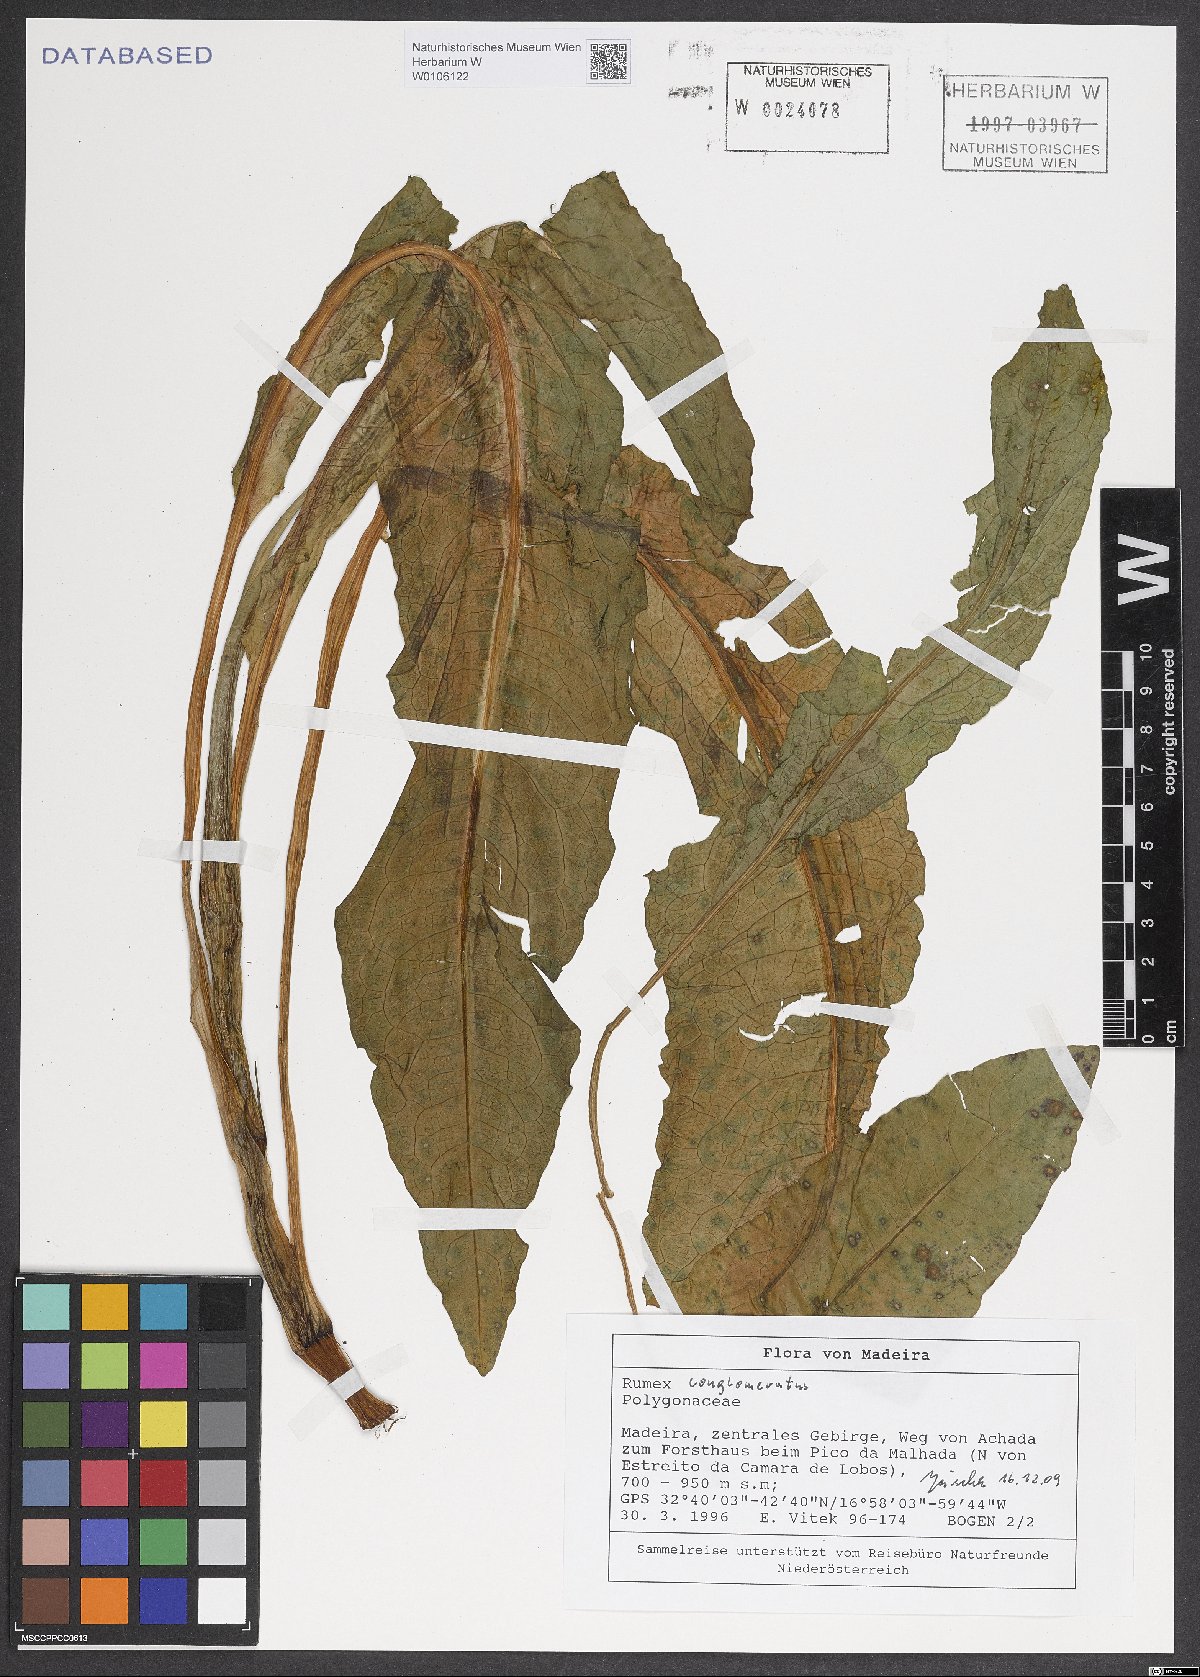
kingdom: Plantae
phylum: Tracheophyta
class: Magnoliopsida
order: Caryophyllales
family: Polygonaceae
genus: Rumex
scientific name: Rumex conglomeratus
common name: Clustered dock
